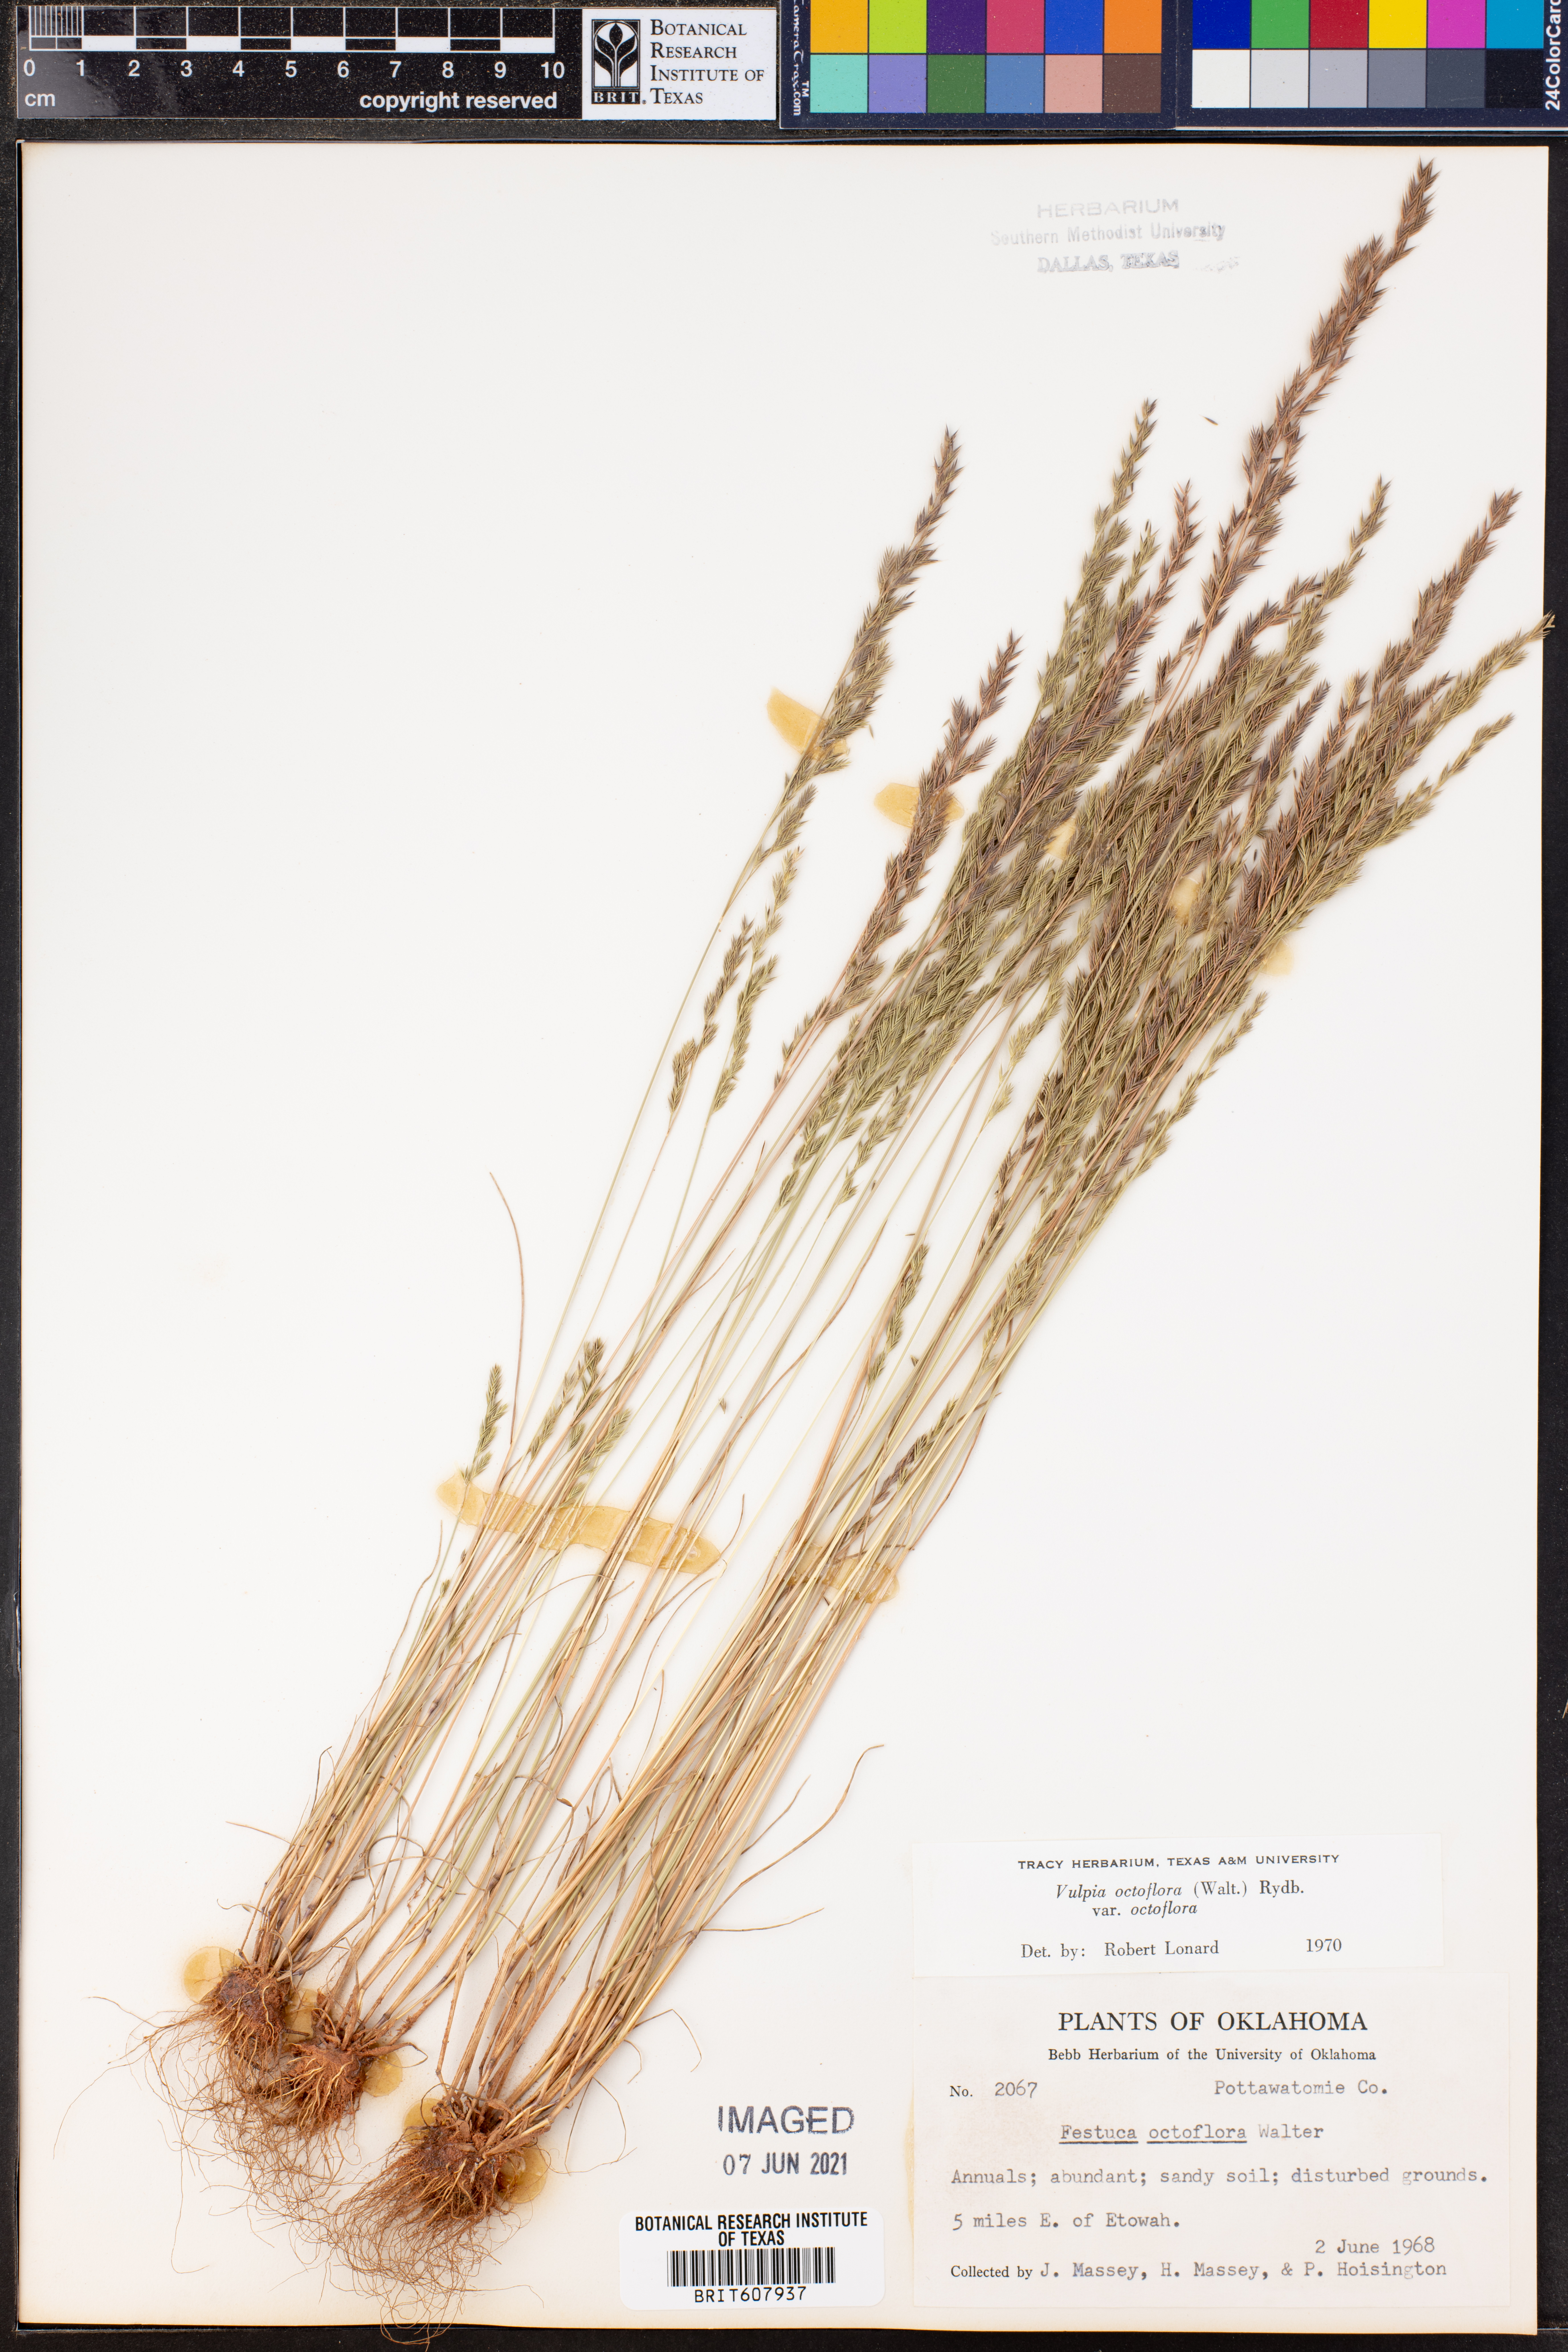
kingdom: Plantae
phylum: Tracheophyta
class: Liliopsida
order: Poales
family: Poaceae
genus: Festuca
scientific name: Festuca octoflora
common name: Sixweeks grass
